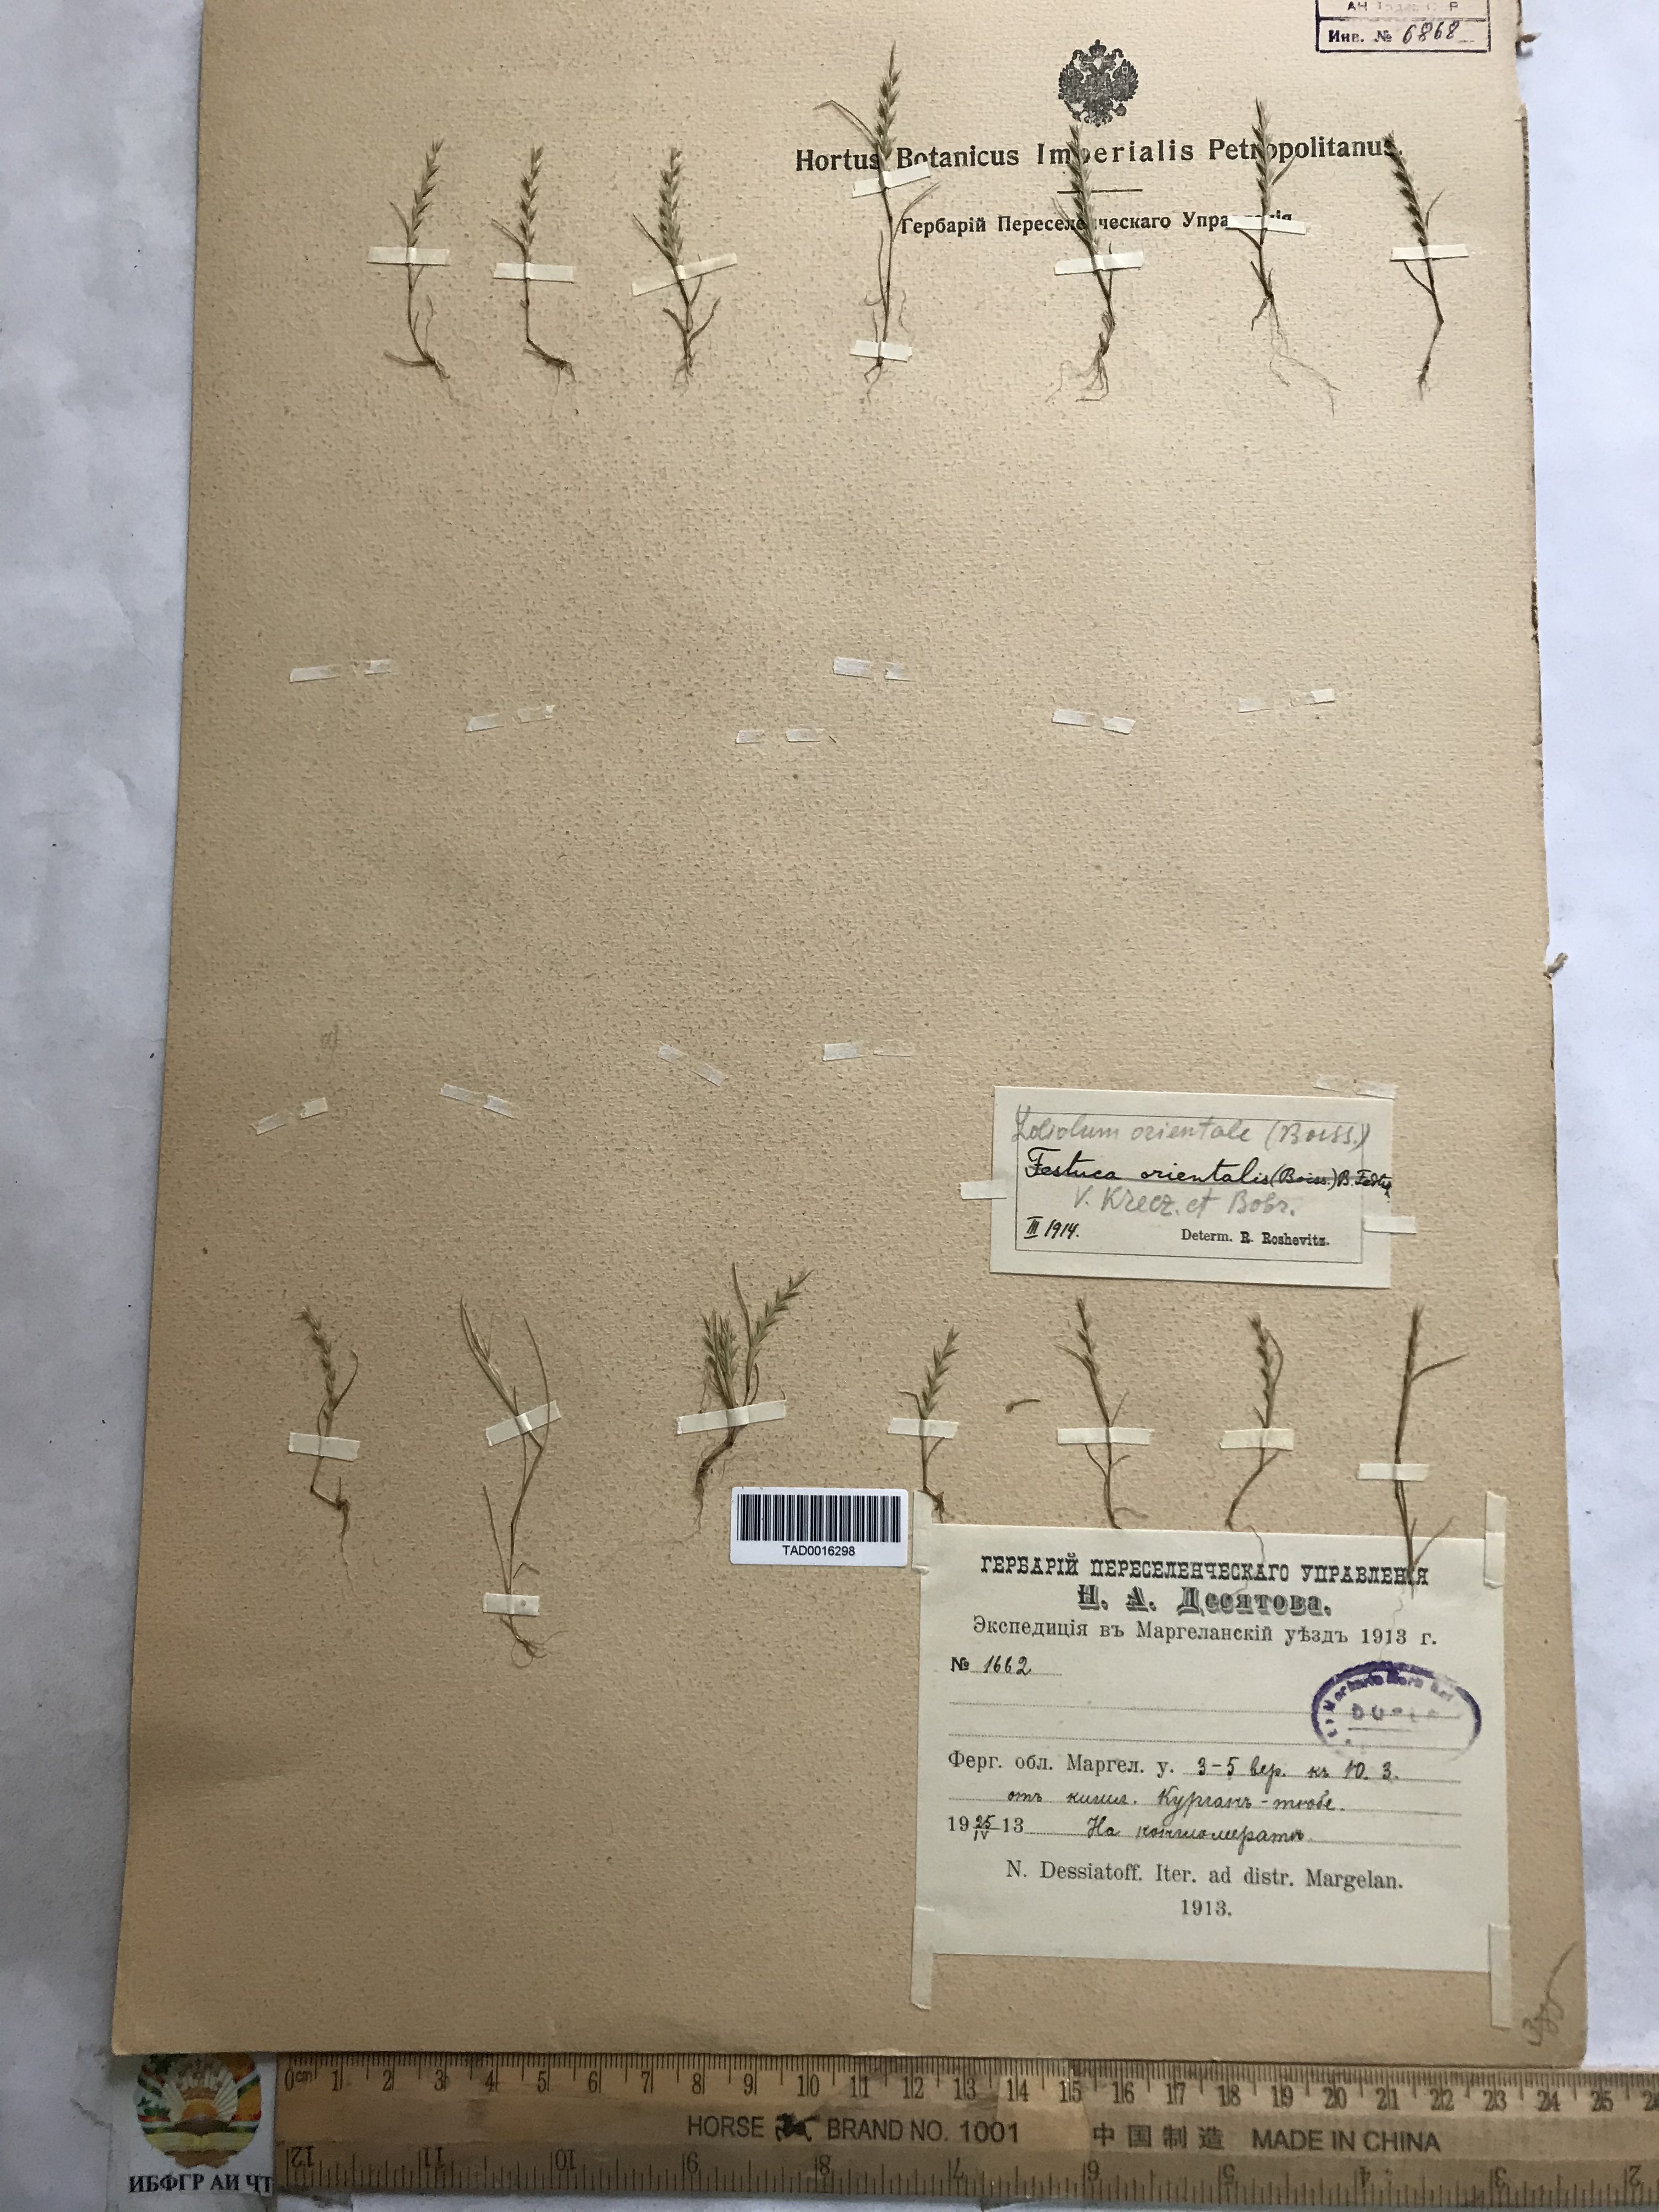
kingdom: Plantae
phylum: Tracheophyta
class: Liliopsida
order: Poales
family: Poaceae
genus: Festuca
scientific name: Festuca orientalis
